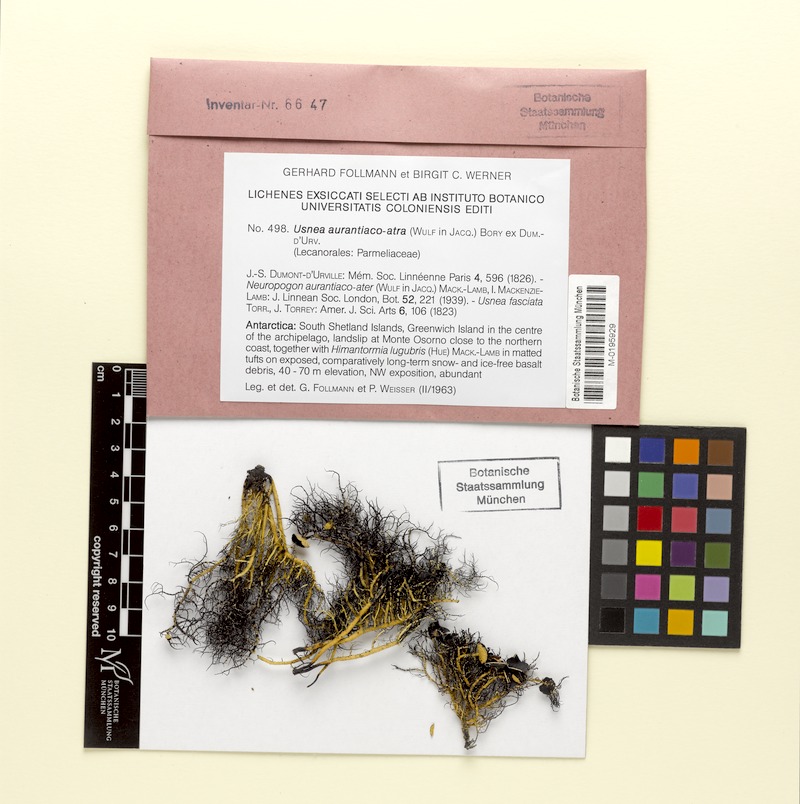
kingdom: Fungi
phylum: Ascomycota
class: Lecanoromycetes
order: Lecanorales
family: Parmeliaceae
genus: Usnea
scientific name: Usnea aurantiacoatra
